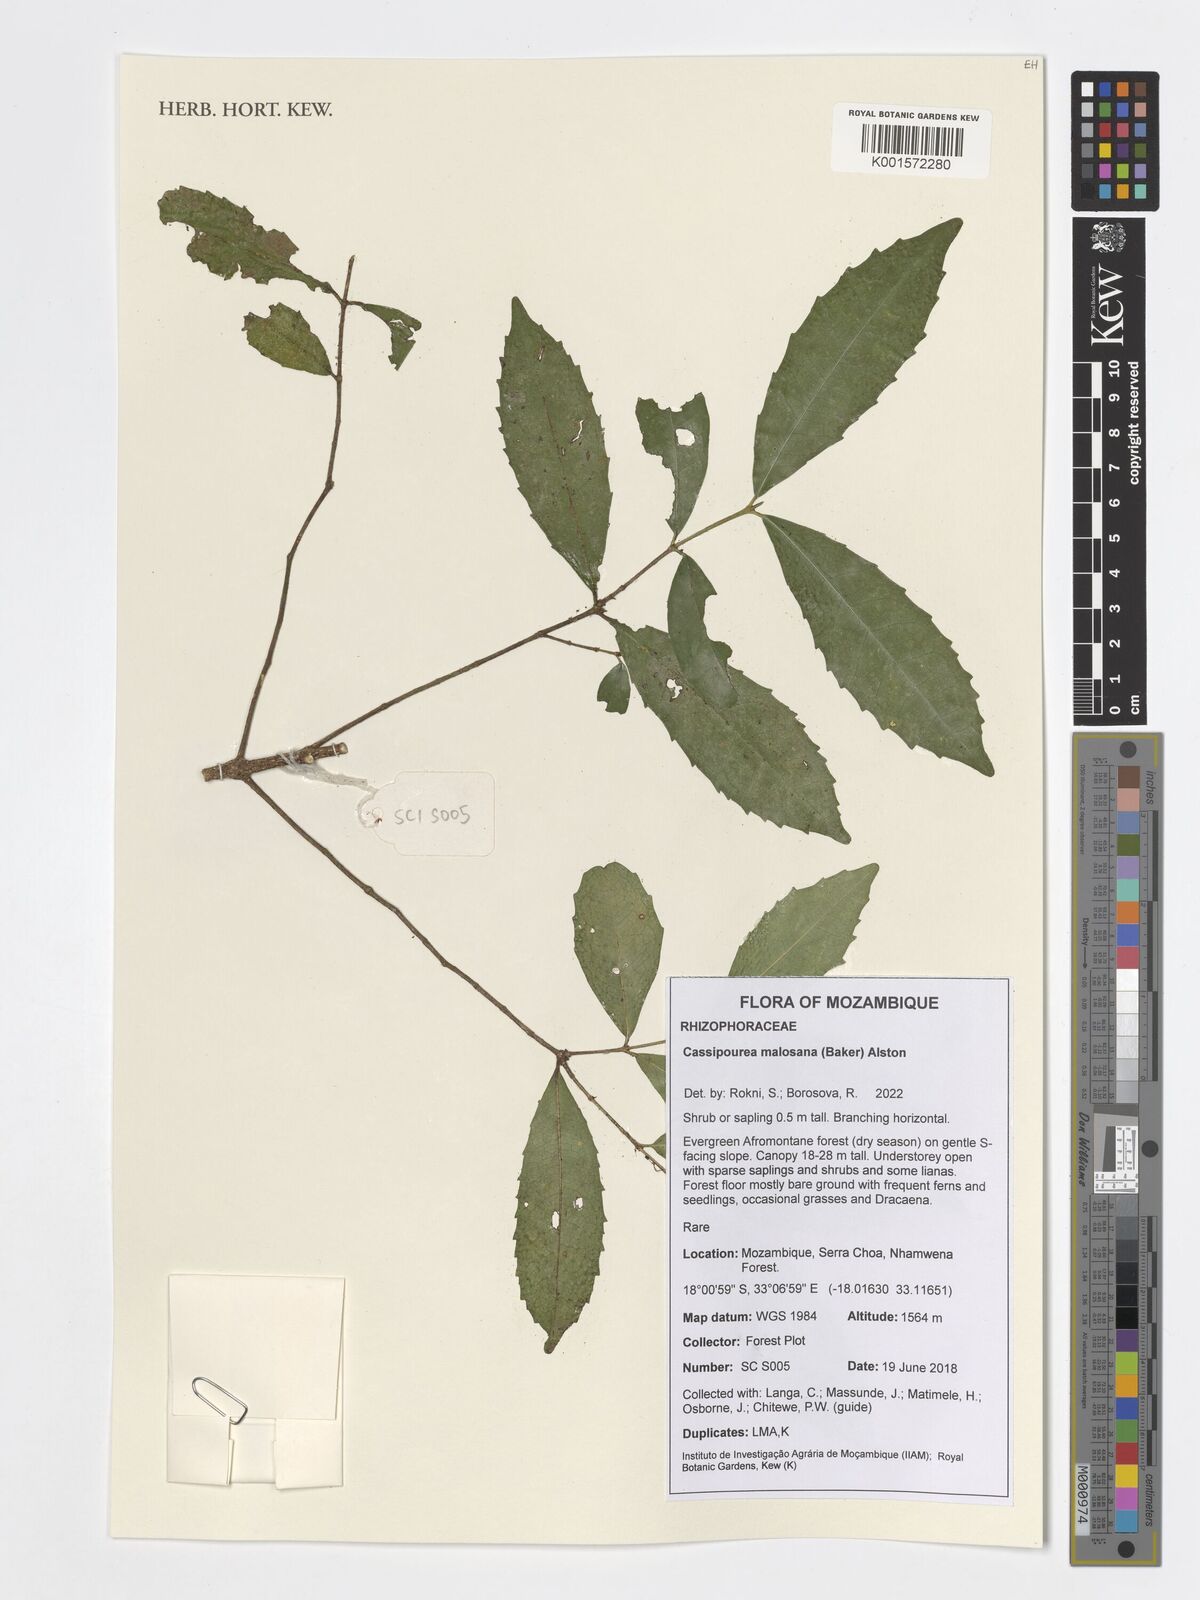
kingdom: Plantae
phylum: Tracheophyta
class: Magnoliopsida
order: Malpighiales
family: Rhizophoraceae
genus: Cassipourea
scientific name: Cassipourea malosana
